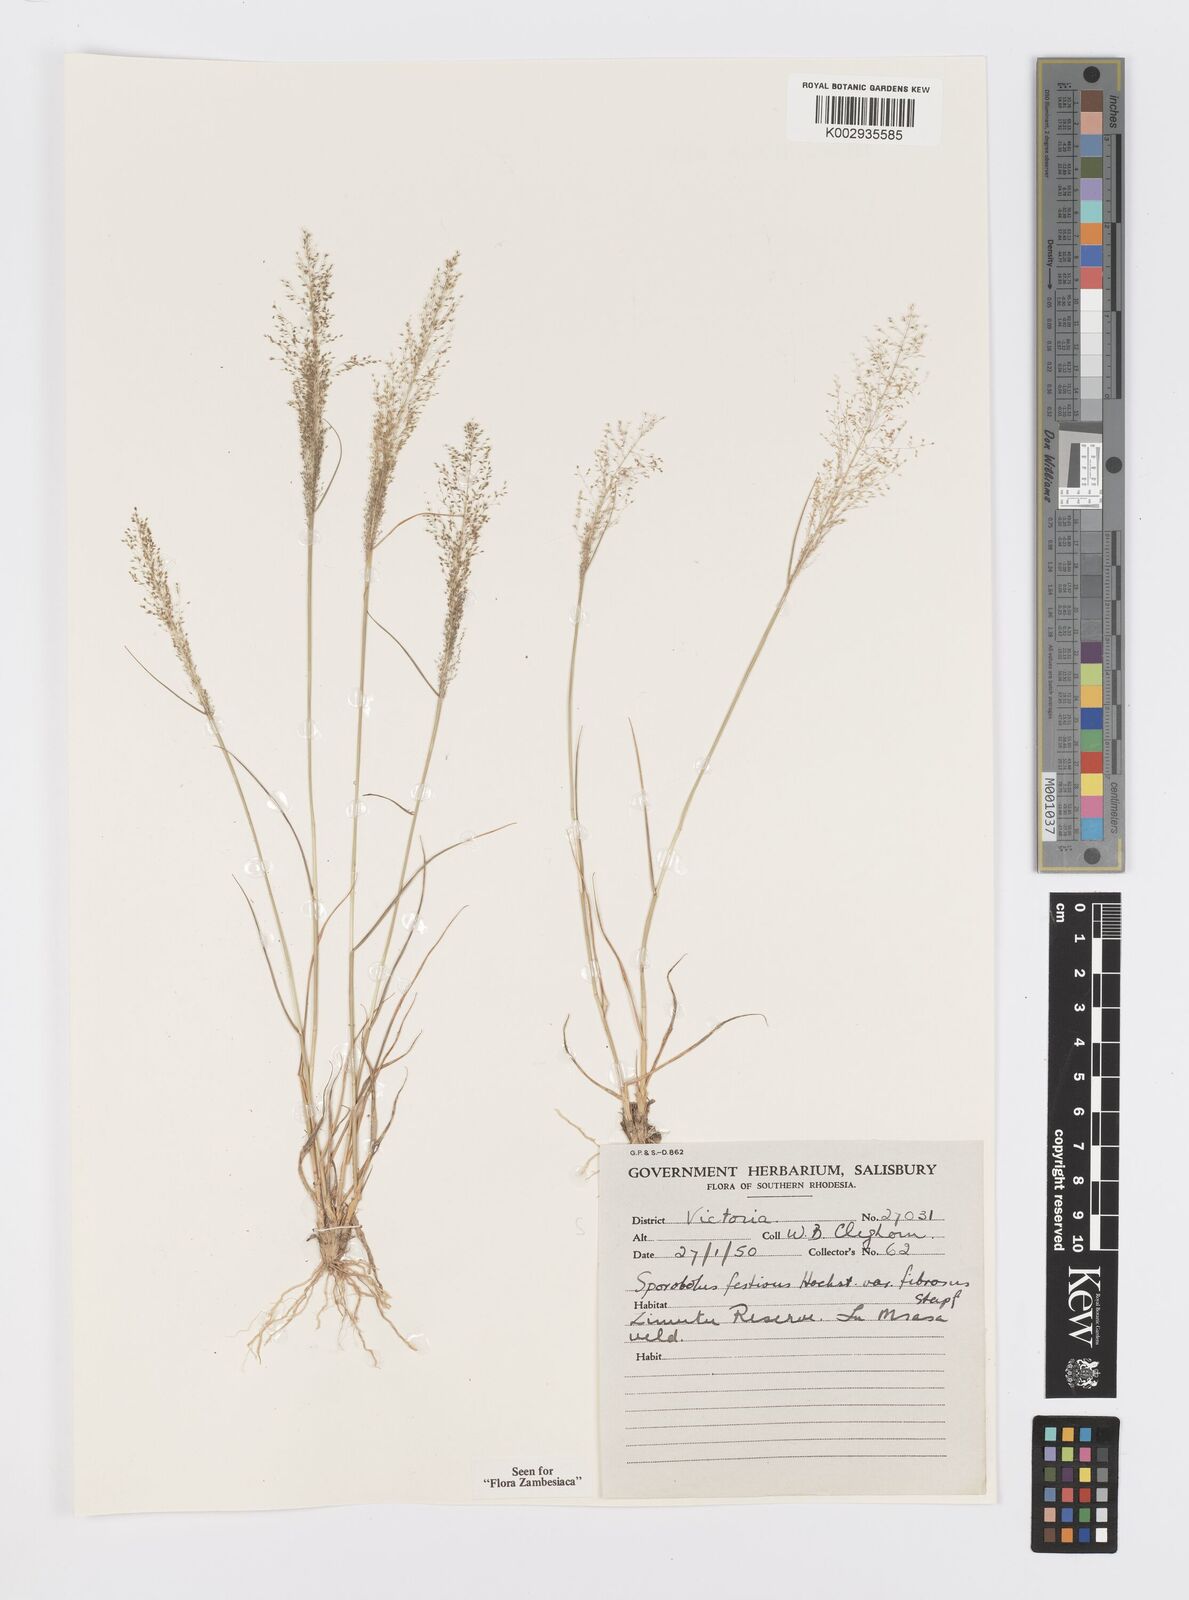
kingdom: Plantae
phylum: Tracheophyta
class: Liliopsida
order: Poales
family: Poaceae
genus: Sporobolus
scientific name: Sporobolus festivus
